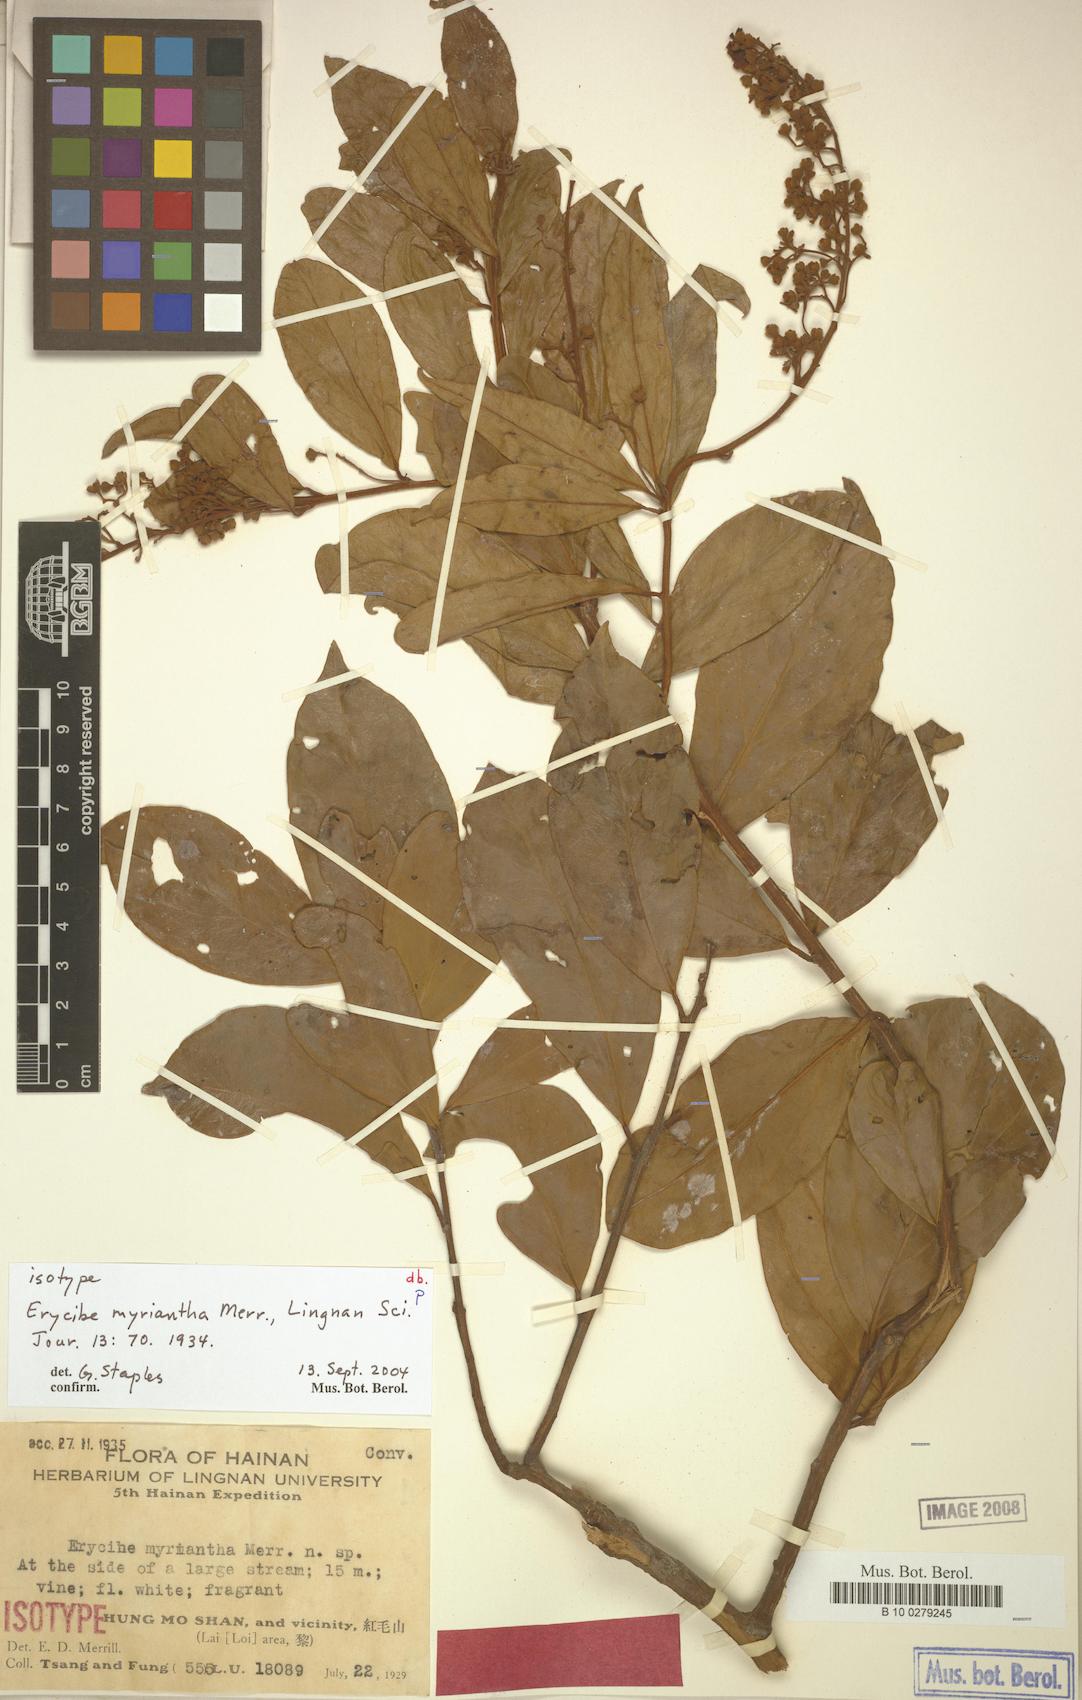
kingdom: Plantae
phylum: Tracheophyta
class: Magnoliopsida
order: Solanales
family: Convolvulaceae
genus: Erycibe
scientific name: Erycibe myriantha
